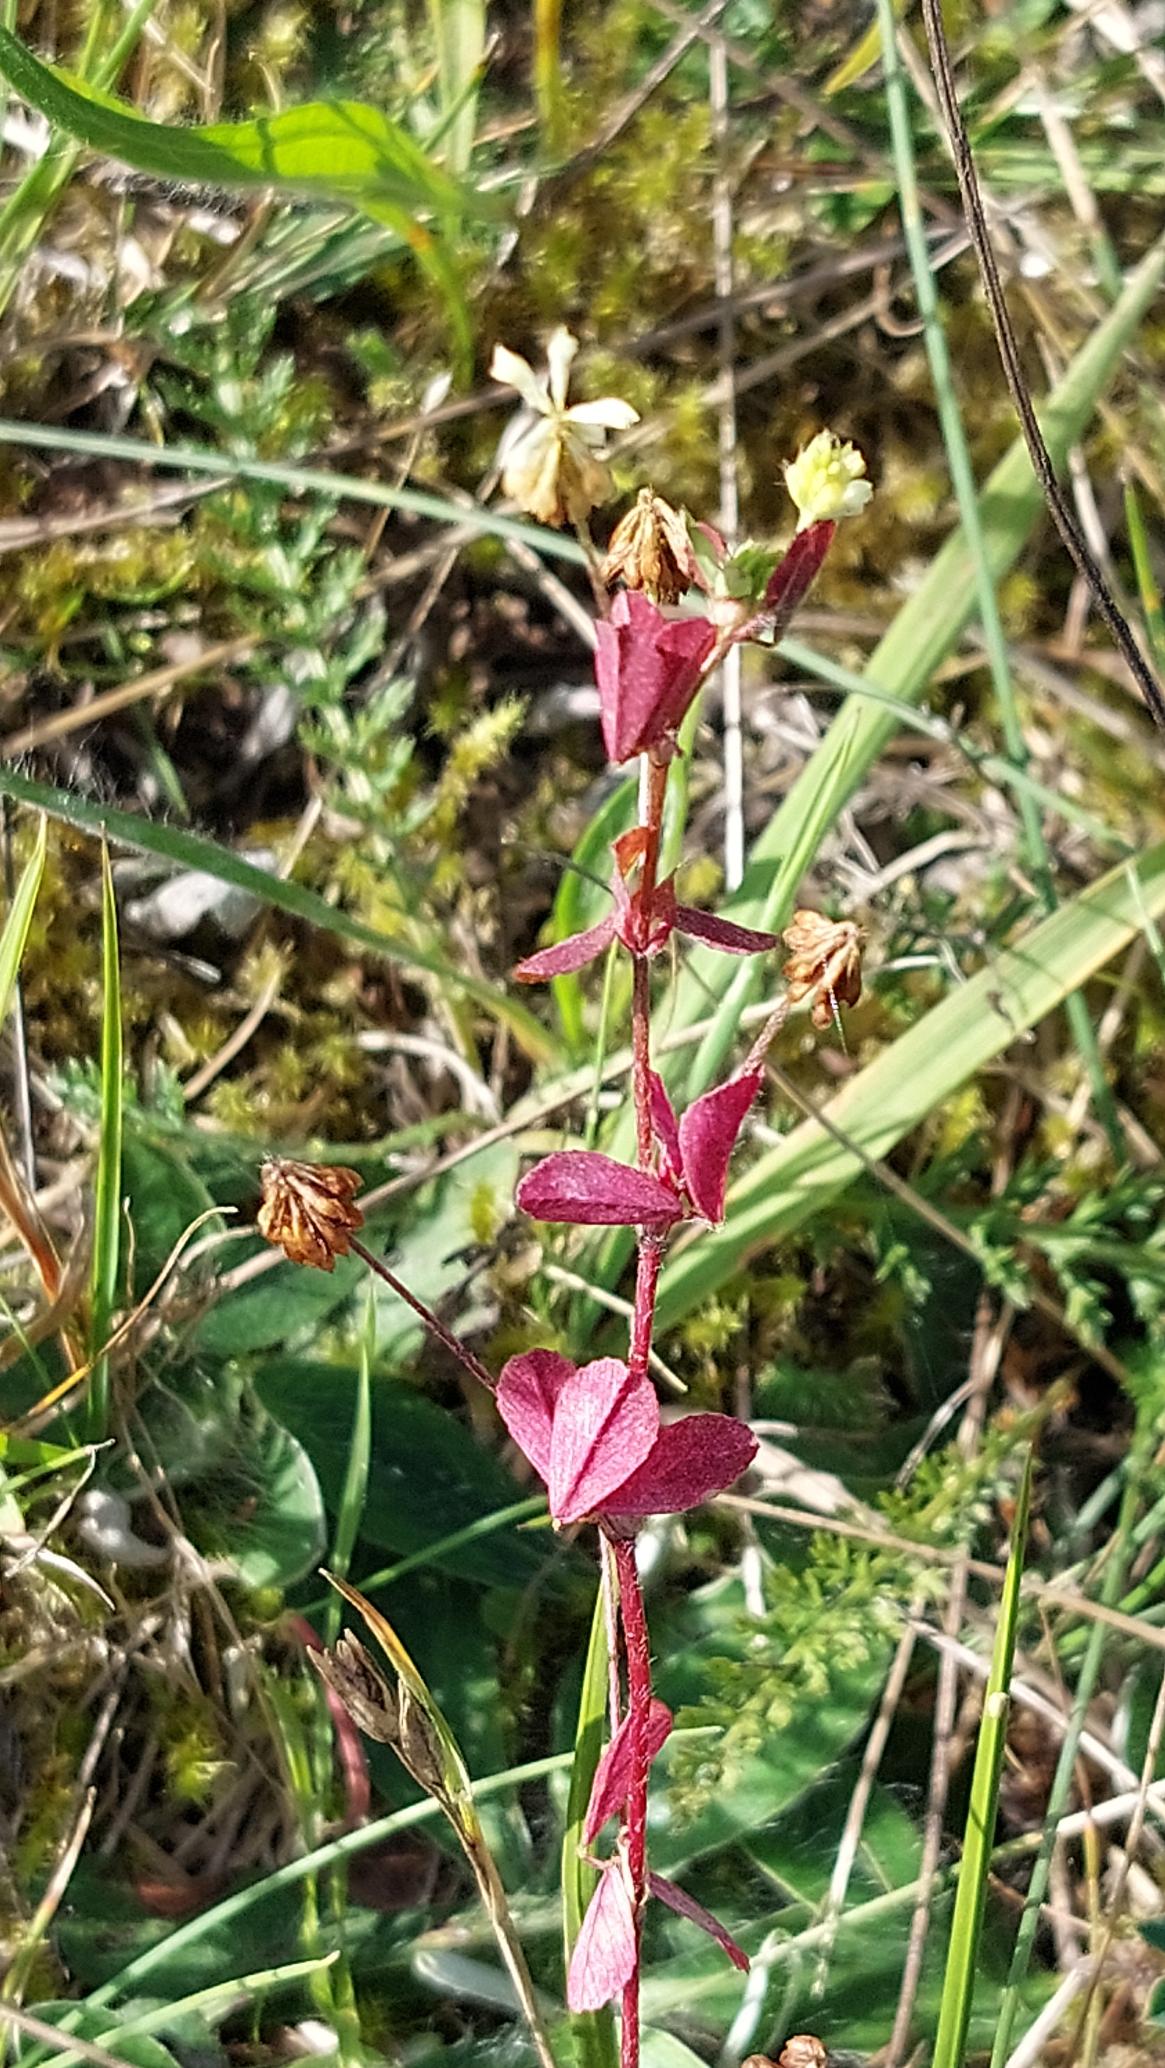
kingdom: Plantae
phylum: Tracheophyta
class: Magnoliopsida
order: Fabales
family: Fabaceae
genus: Trifolium
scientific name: Trifolium dubium
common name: Fin kløver
